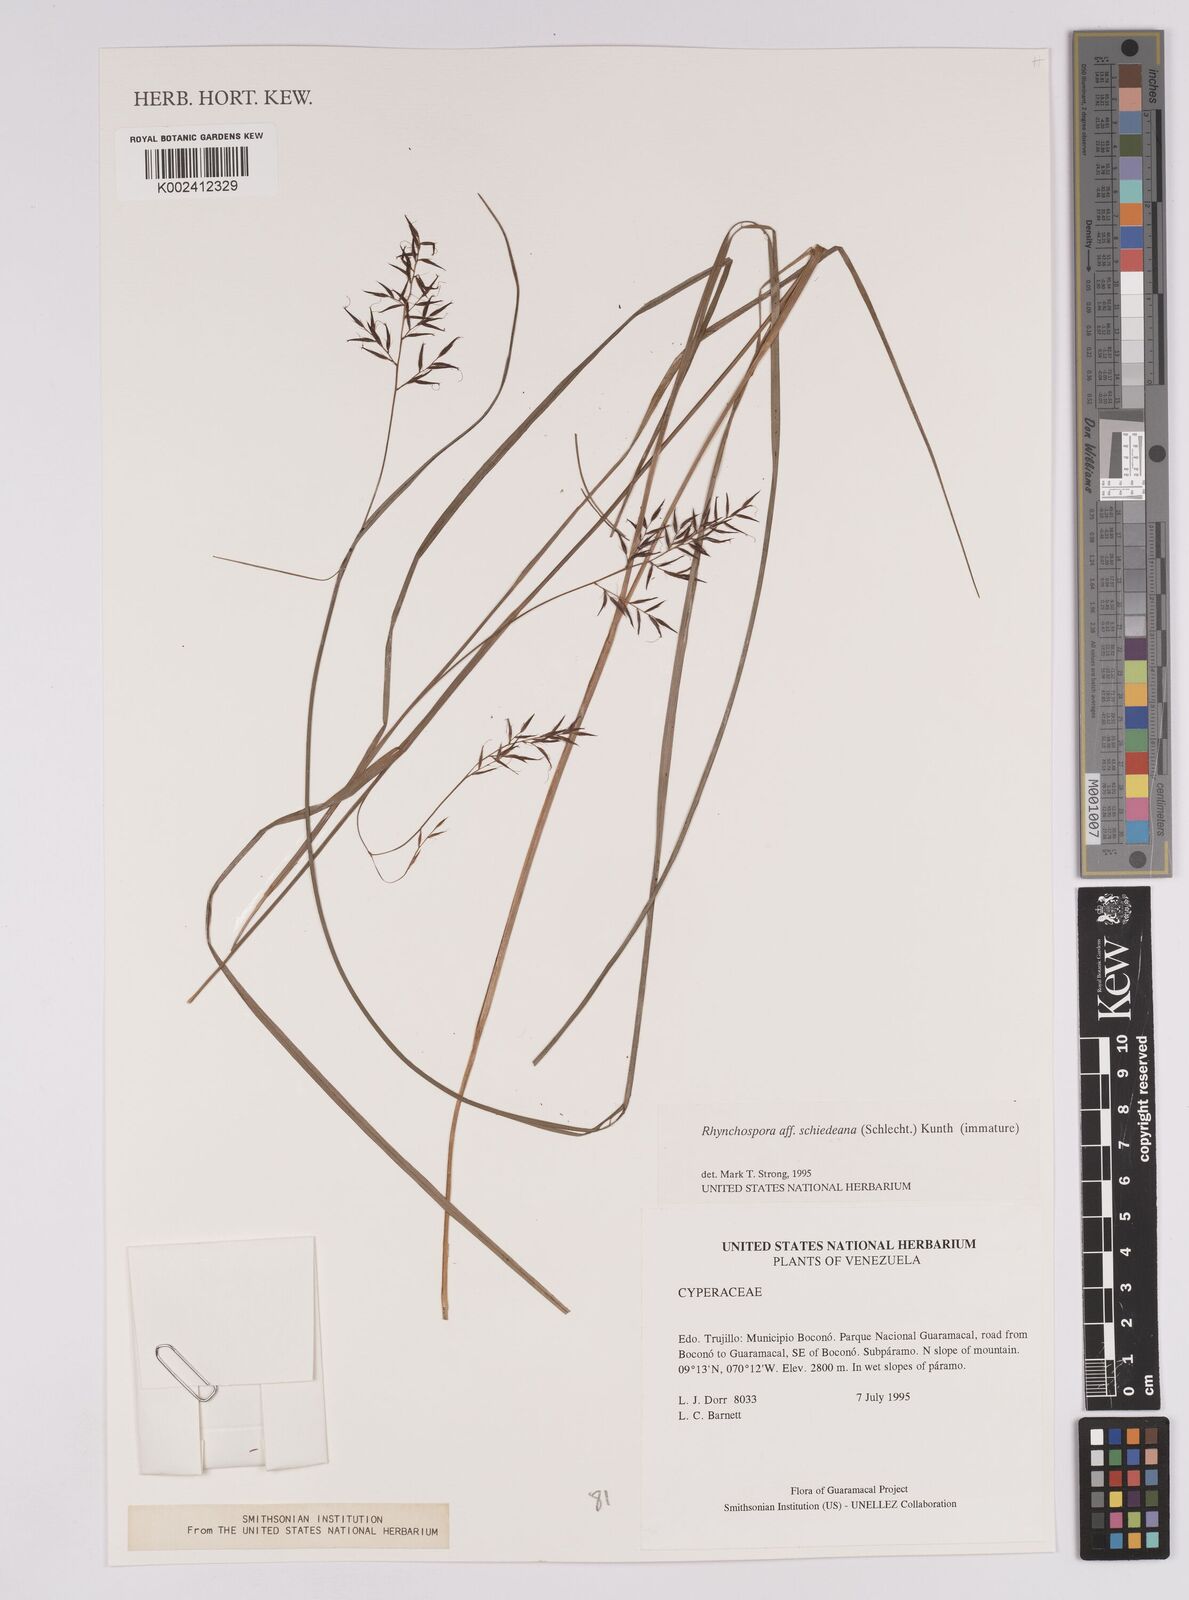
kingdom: Plantae
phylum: Tracheophyta
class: Liliopsida
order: Poales
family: Cyperaceae
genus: Rhynchospora
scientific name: Rhynchospora schiedeana
